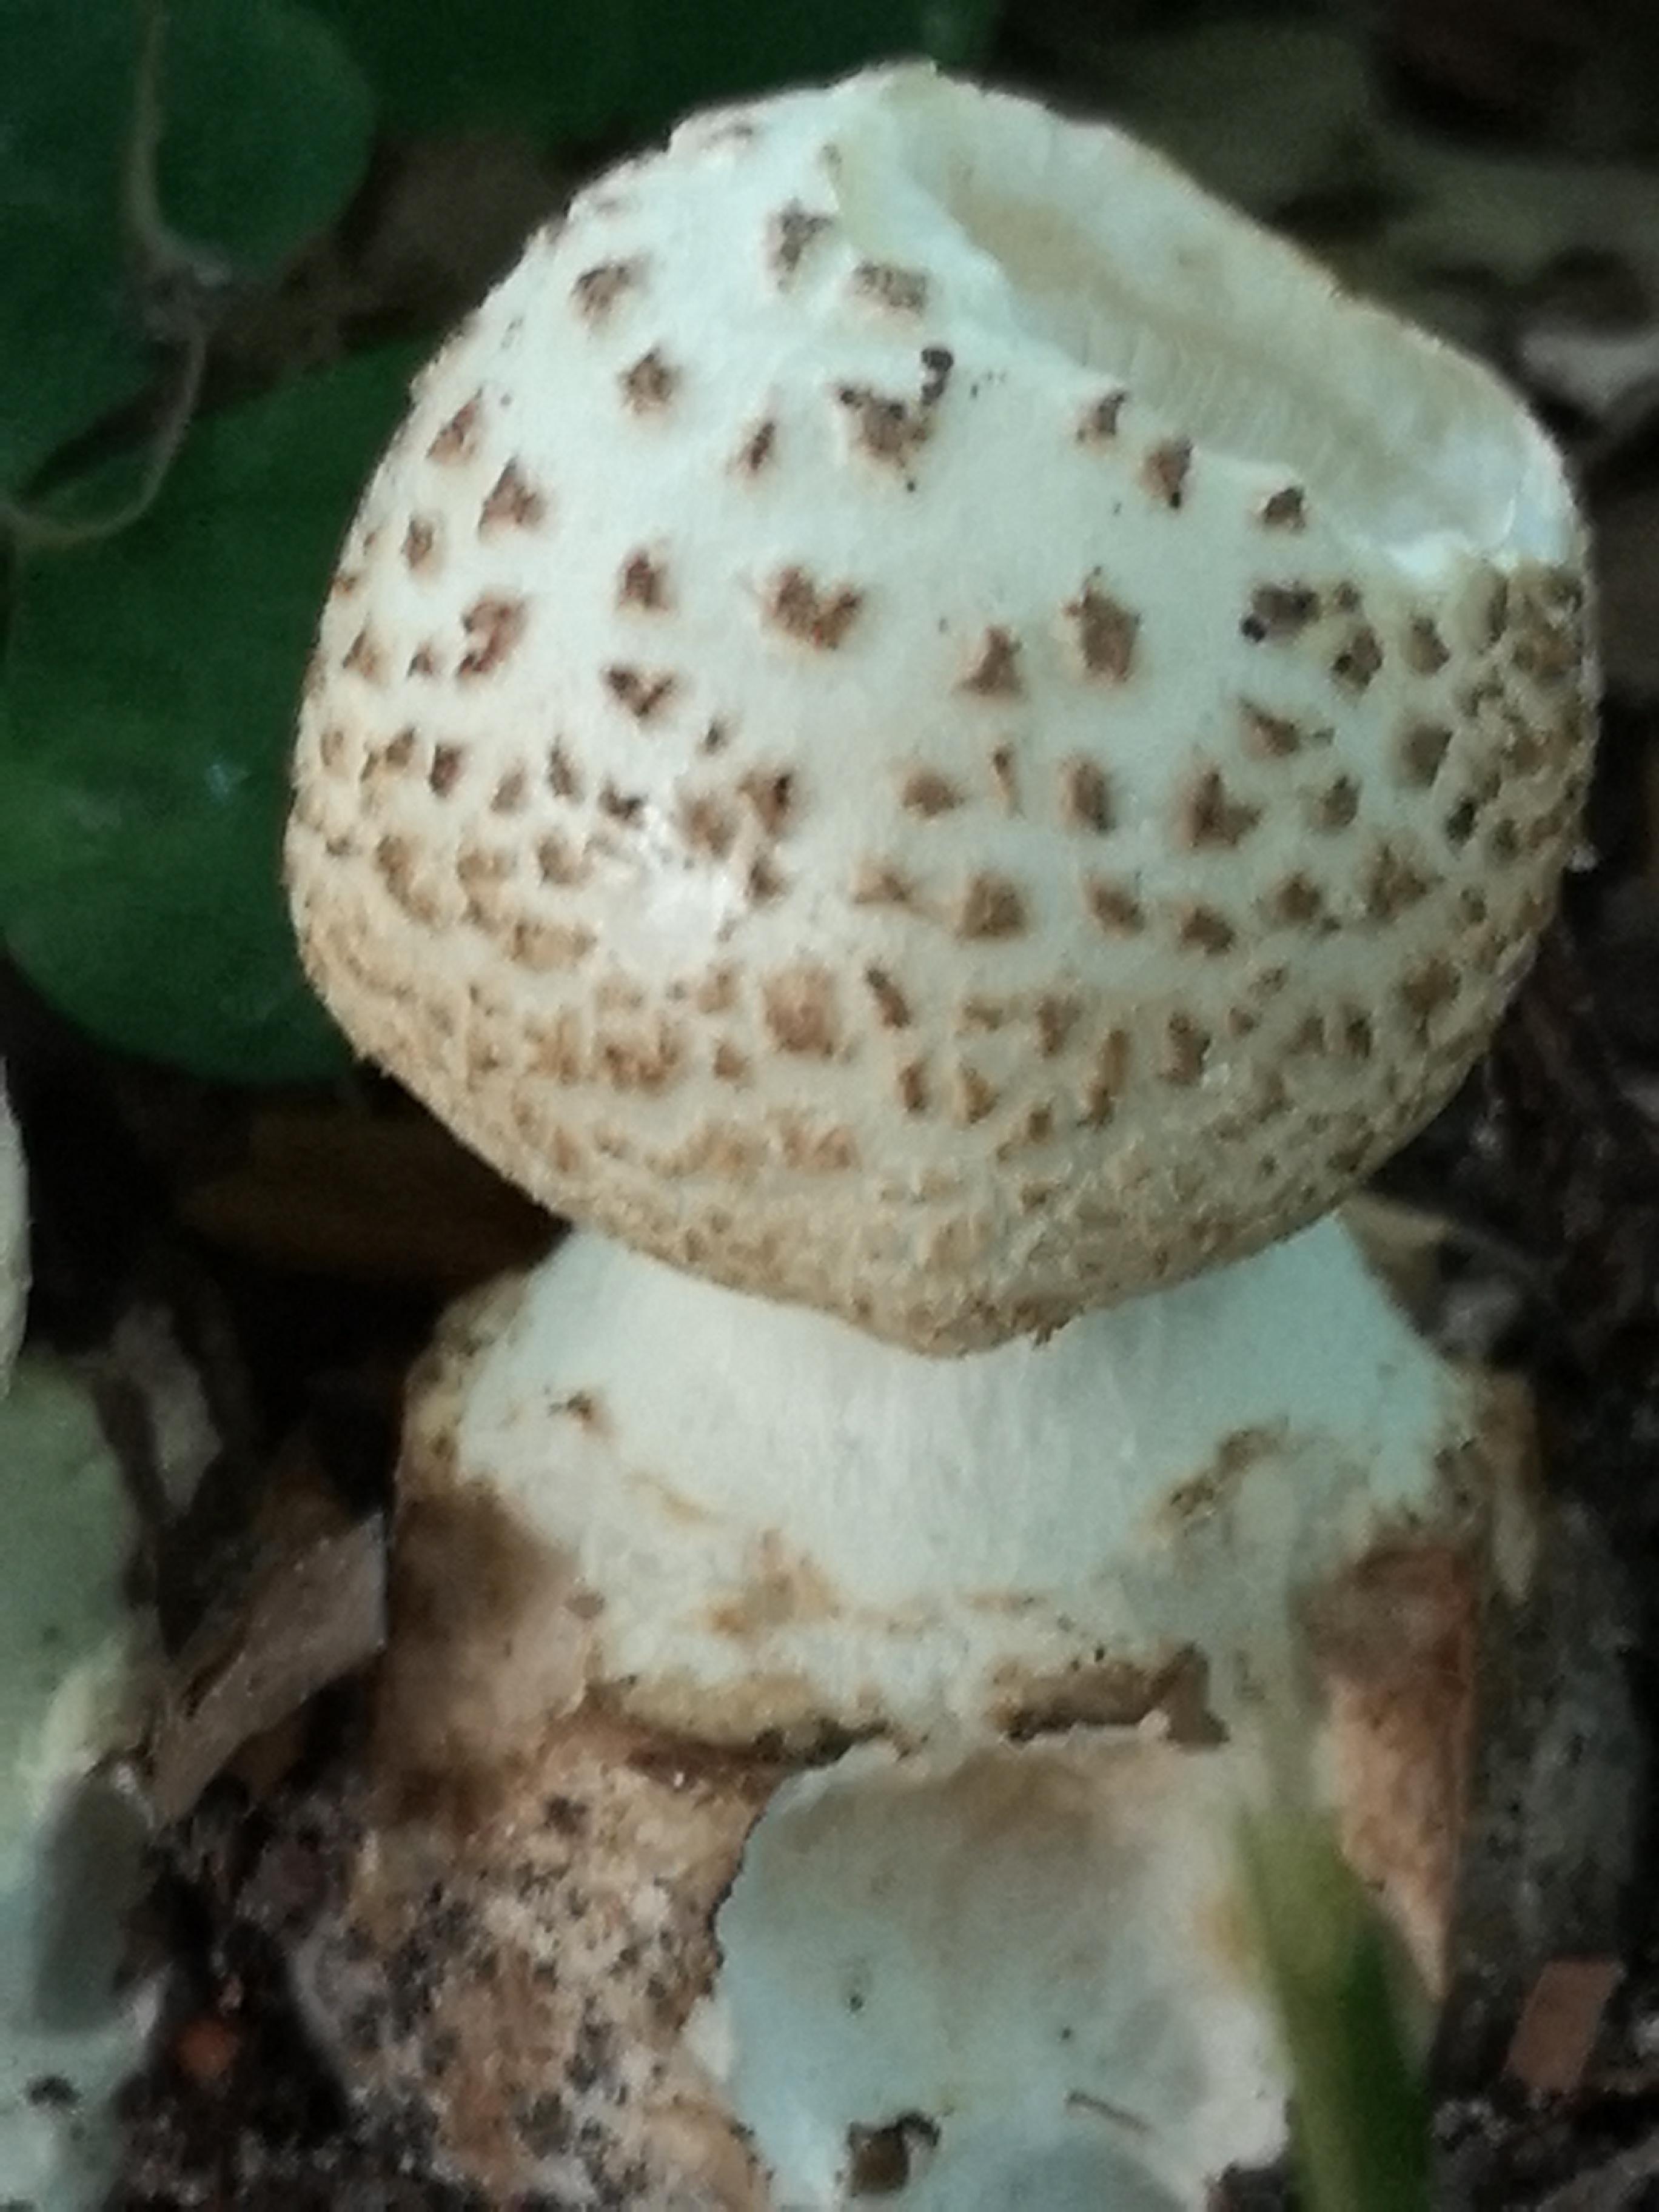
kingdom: Fungi
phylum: Basidiomycota
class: Agaricomycetes
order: Agaricales
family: Amanitaceae
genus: Amanita
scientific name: Amanita
